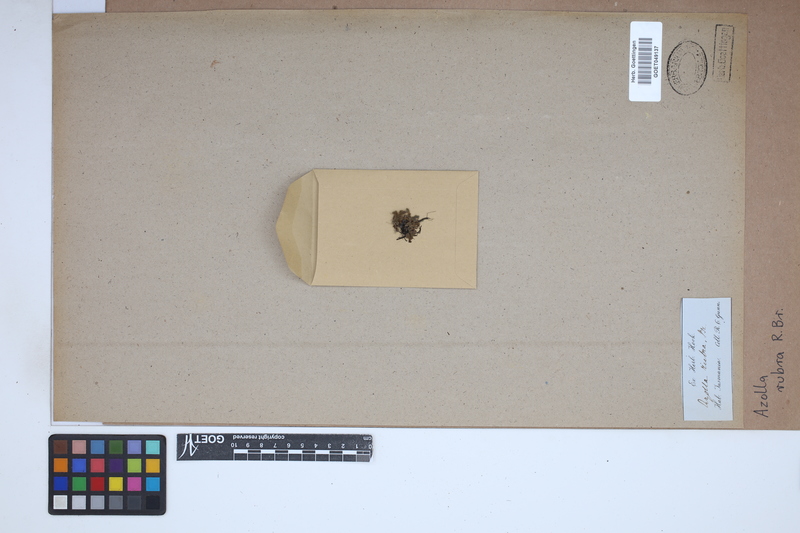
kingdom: Plantae
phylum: Tracheophyta
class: Polypodiopsida
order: Salviniales
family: Salviniaceae
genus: Azolla
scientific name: Azolla rubra
